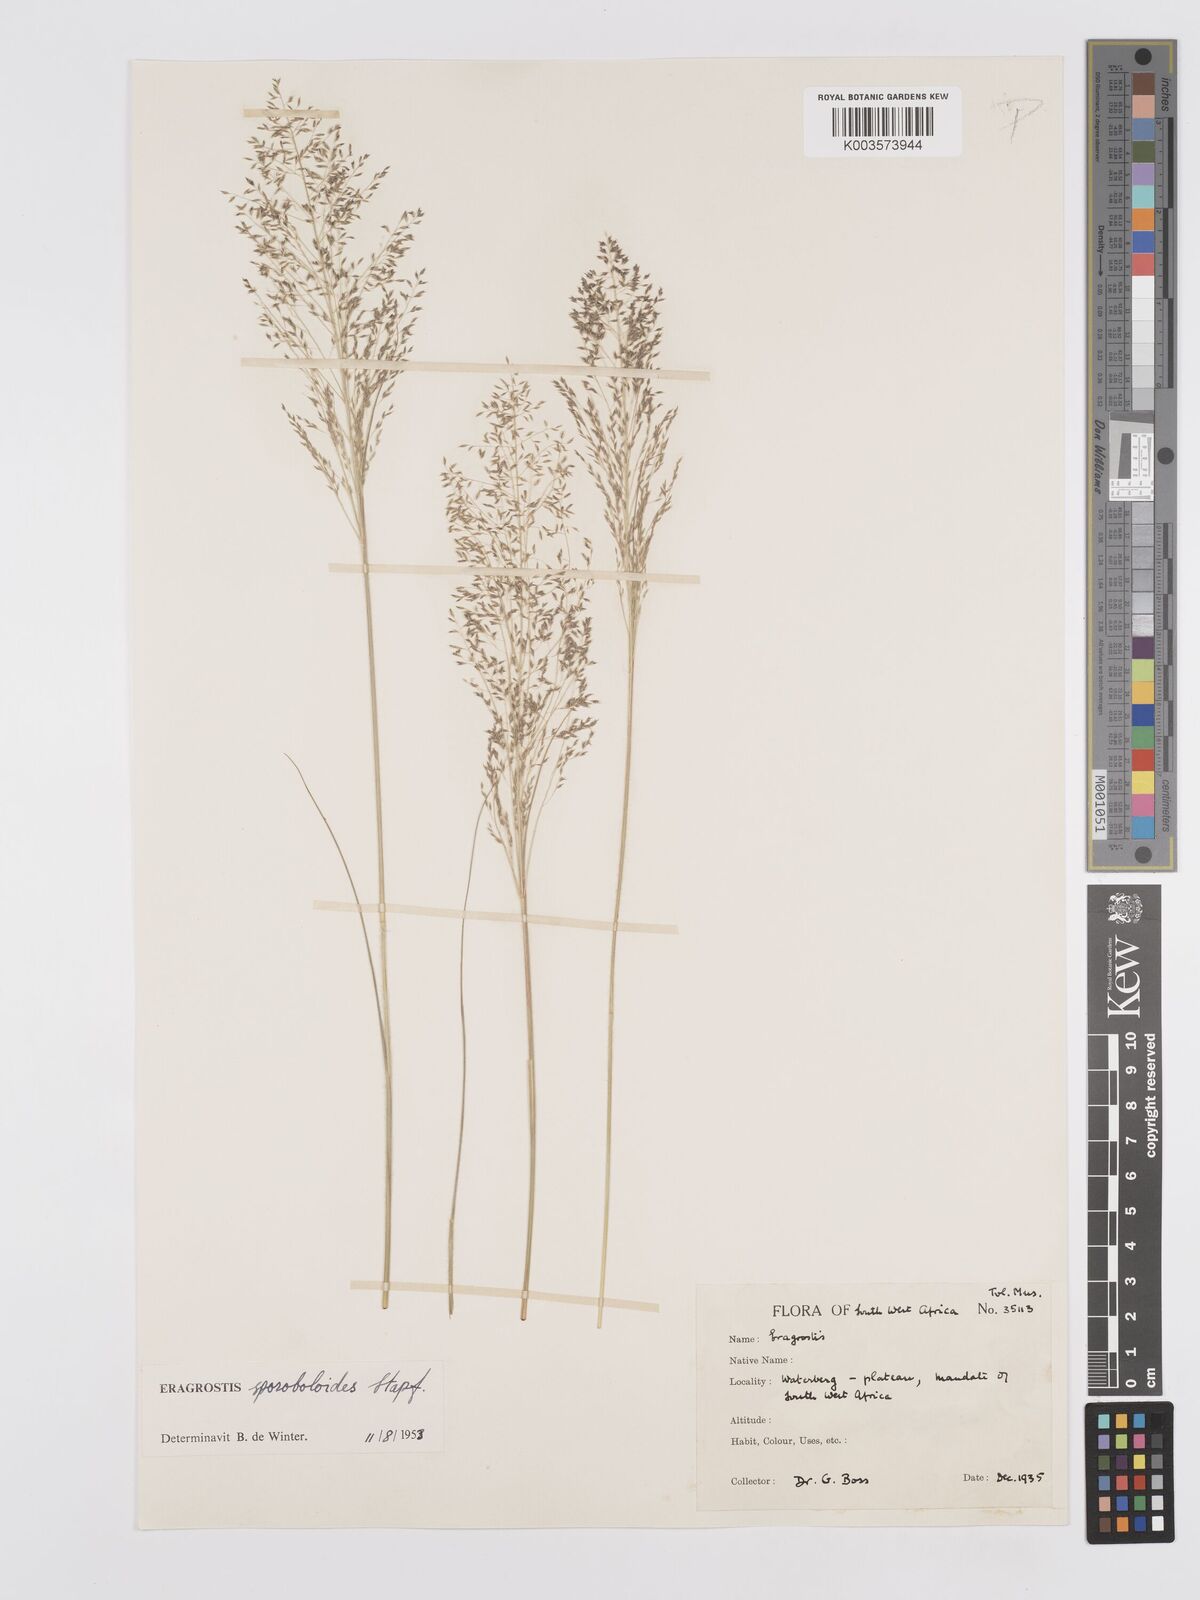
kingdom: Plantae
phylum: Tracheophyta
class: Liliopsida
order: Poales
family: Poaceae
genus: Eragrostis
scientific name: Eragrostis stapfii
